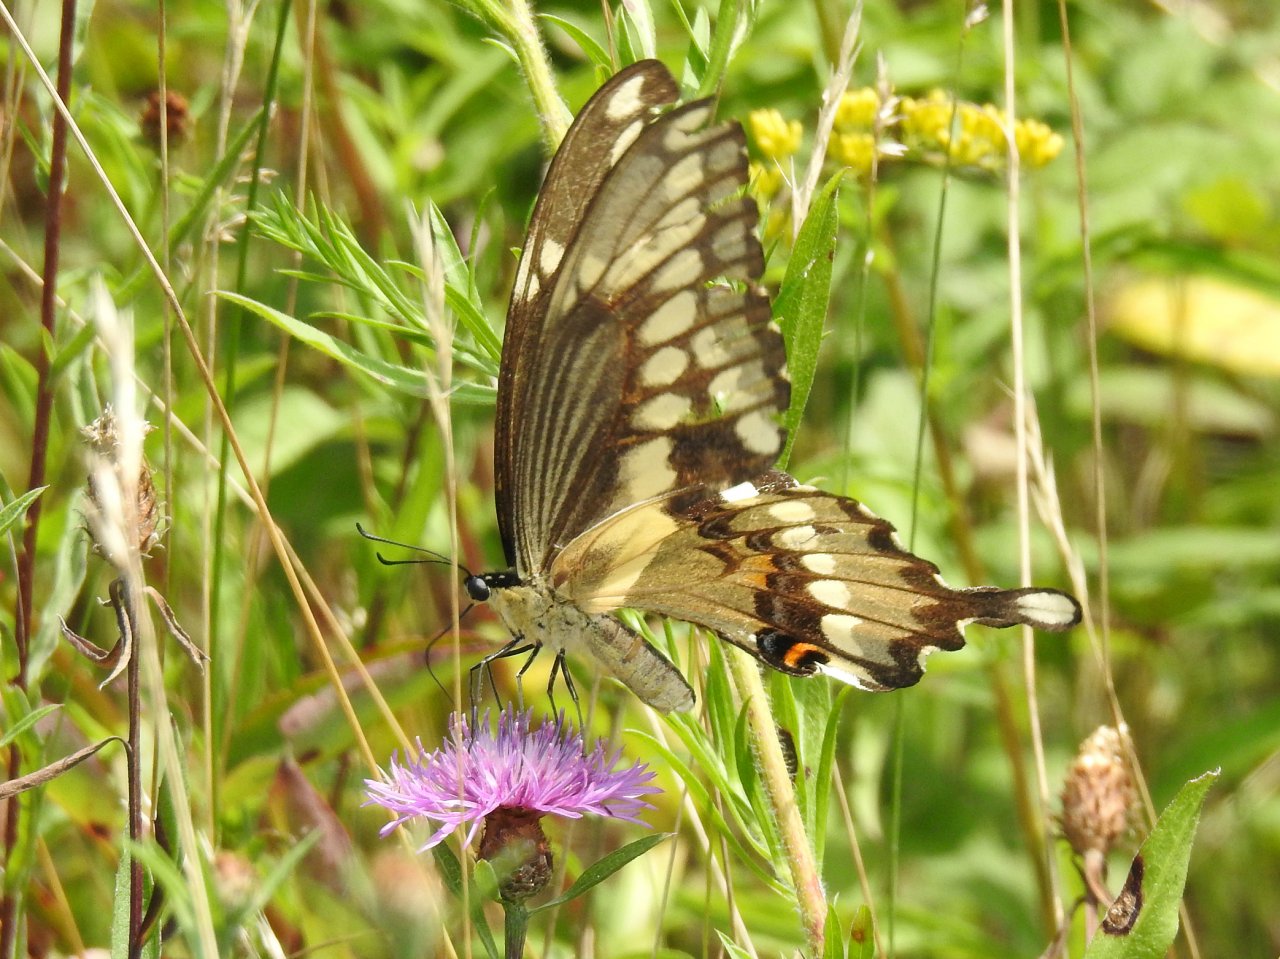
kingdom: Animalia
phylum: Arthropoda
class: Insecta
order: Lepidoptera
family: Papilionidae
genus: Papilio
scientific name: Papilio cresphontes
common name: Eastern Giant Swallowtail
